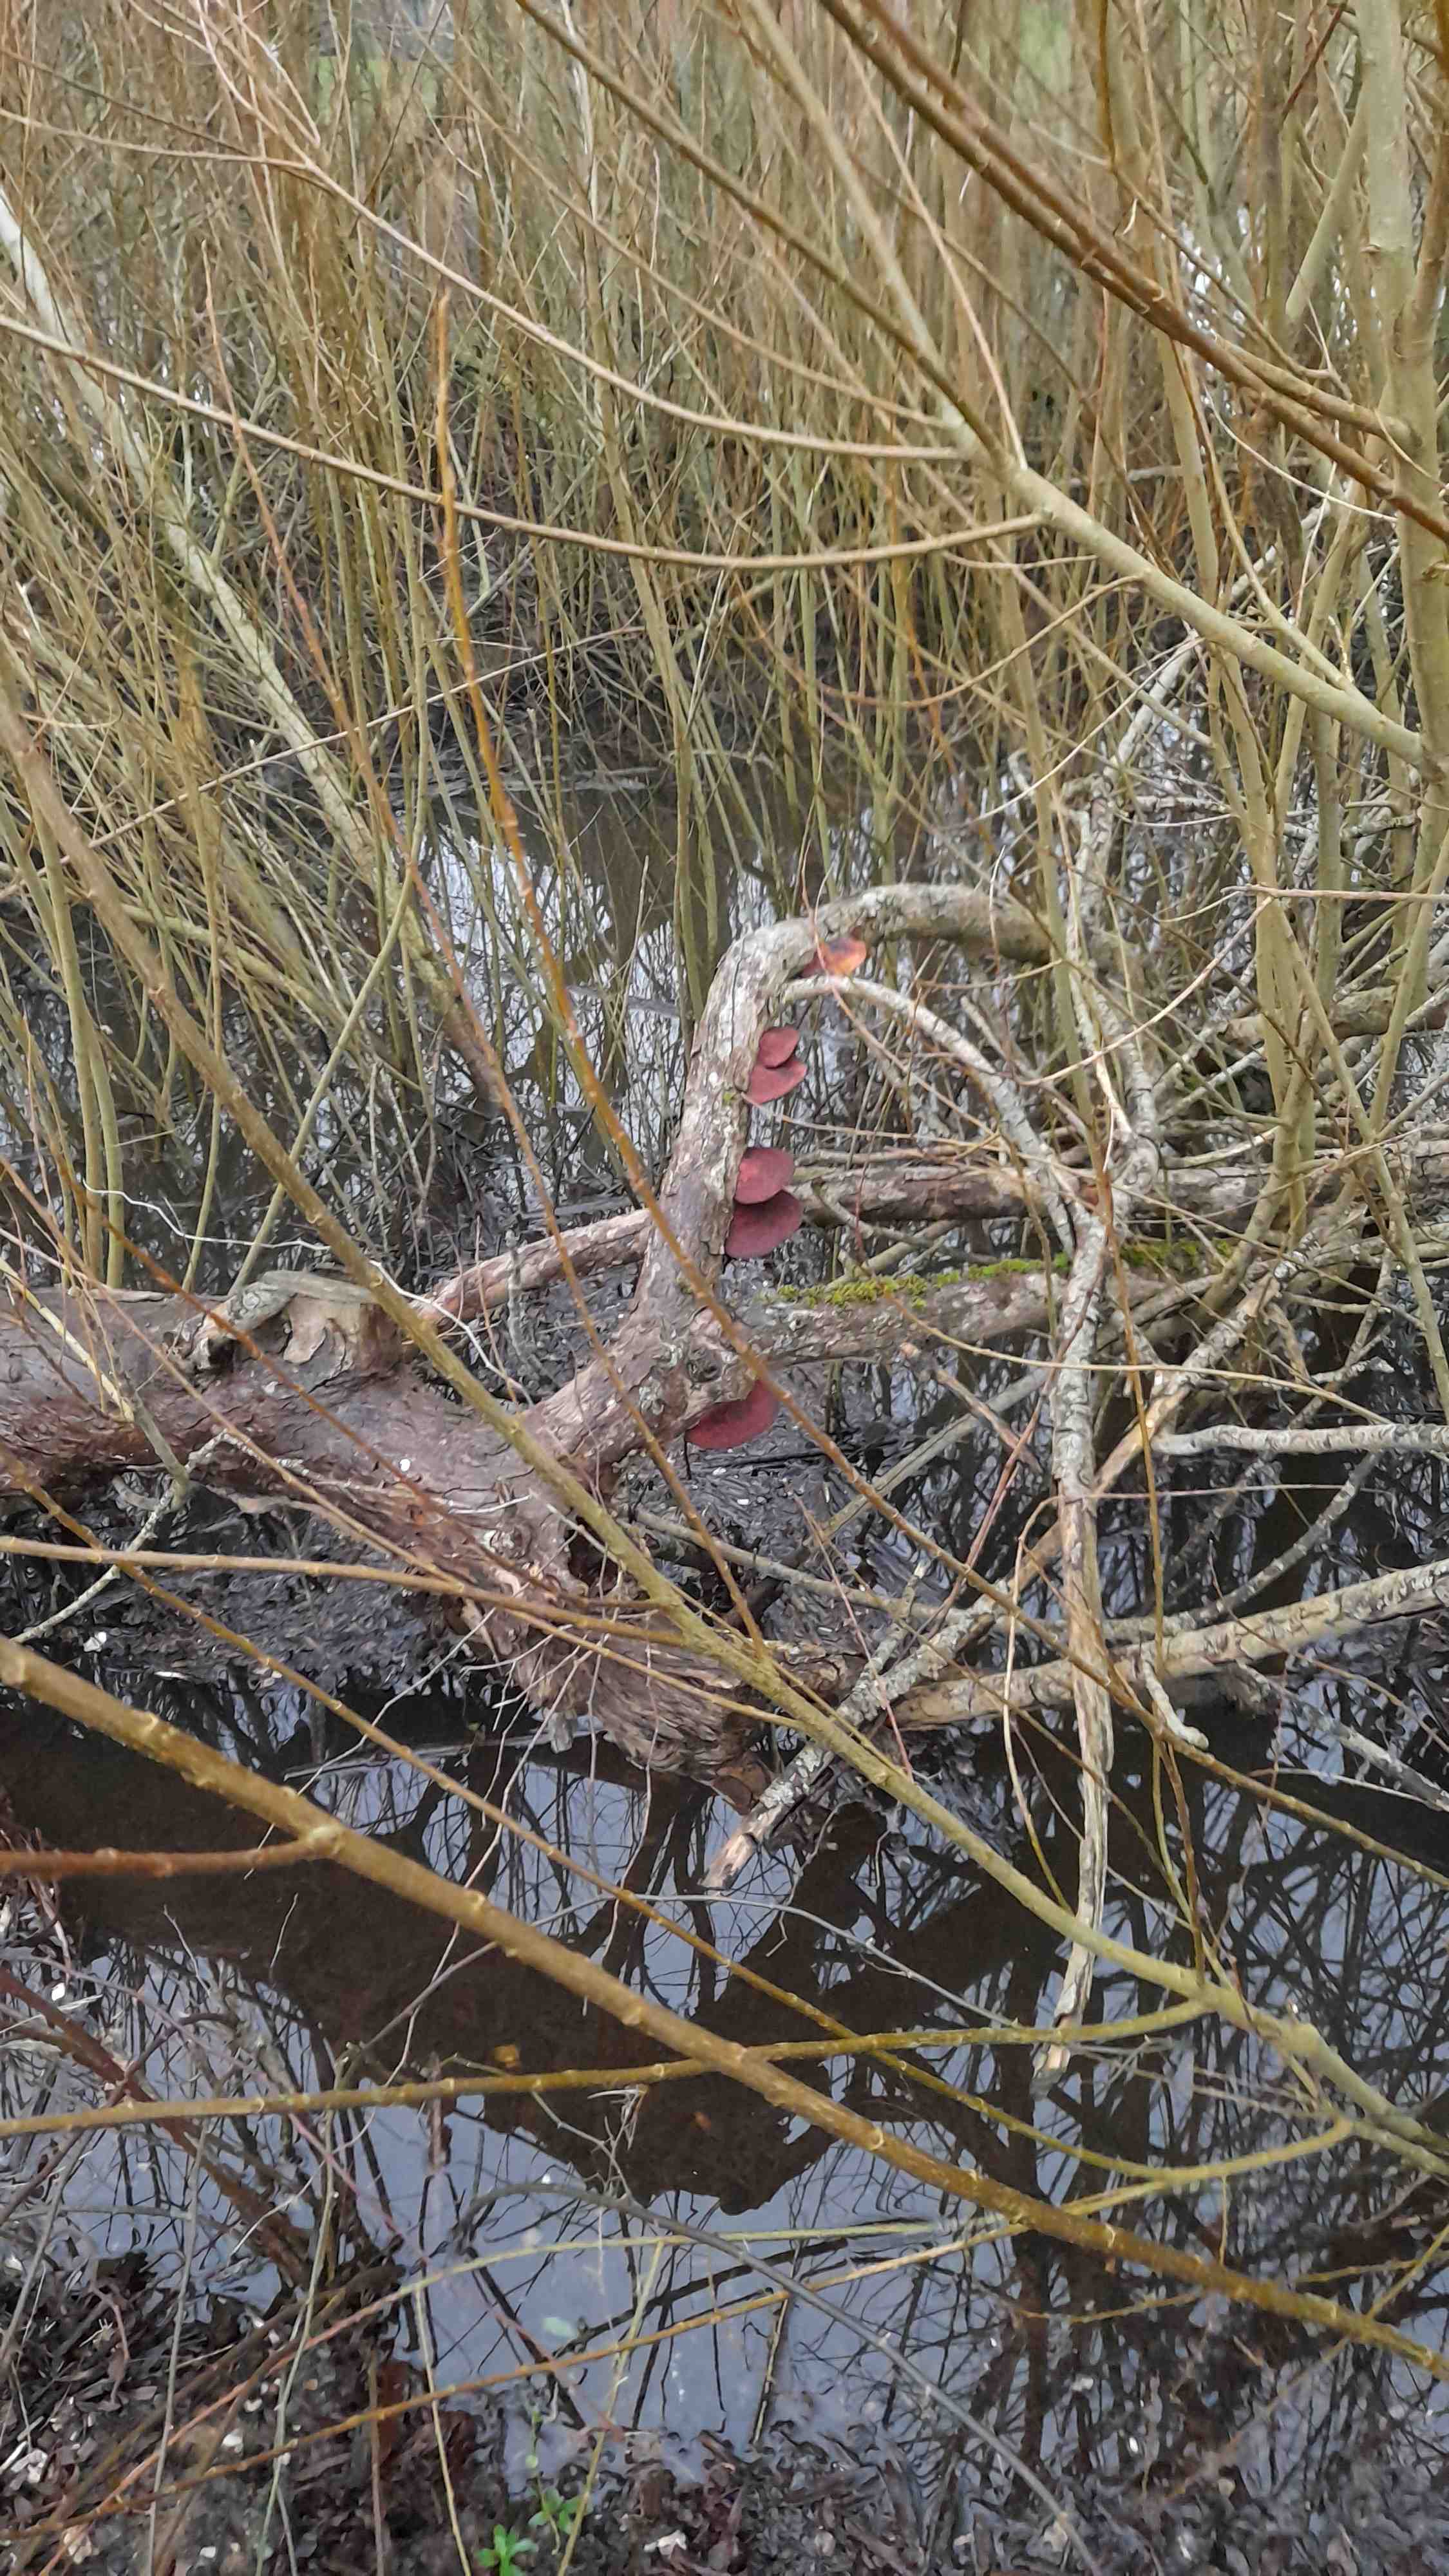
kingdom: Fungi
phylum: Basidiomycota
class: Agaricomycetes
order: Polyporales
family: Polyporaceae
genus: Daedaleopsis
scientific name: Daedaleopsis confragosa
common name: rødmende læderporesvamp
